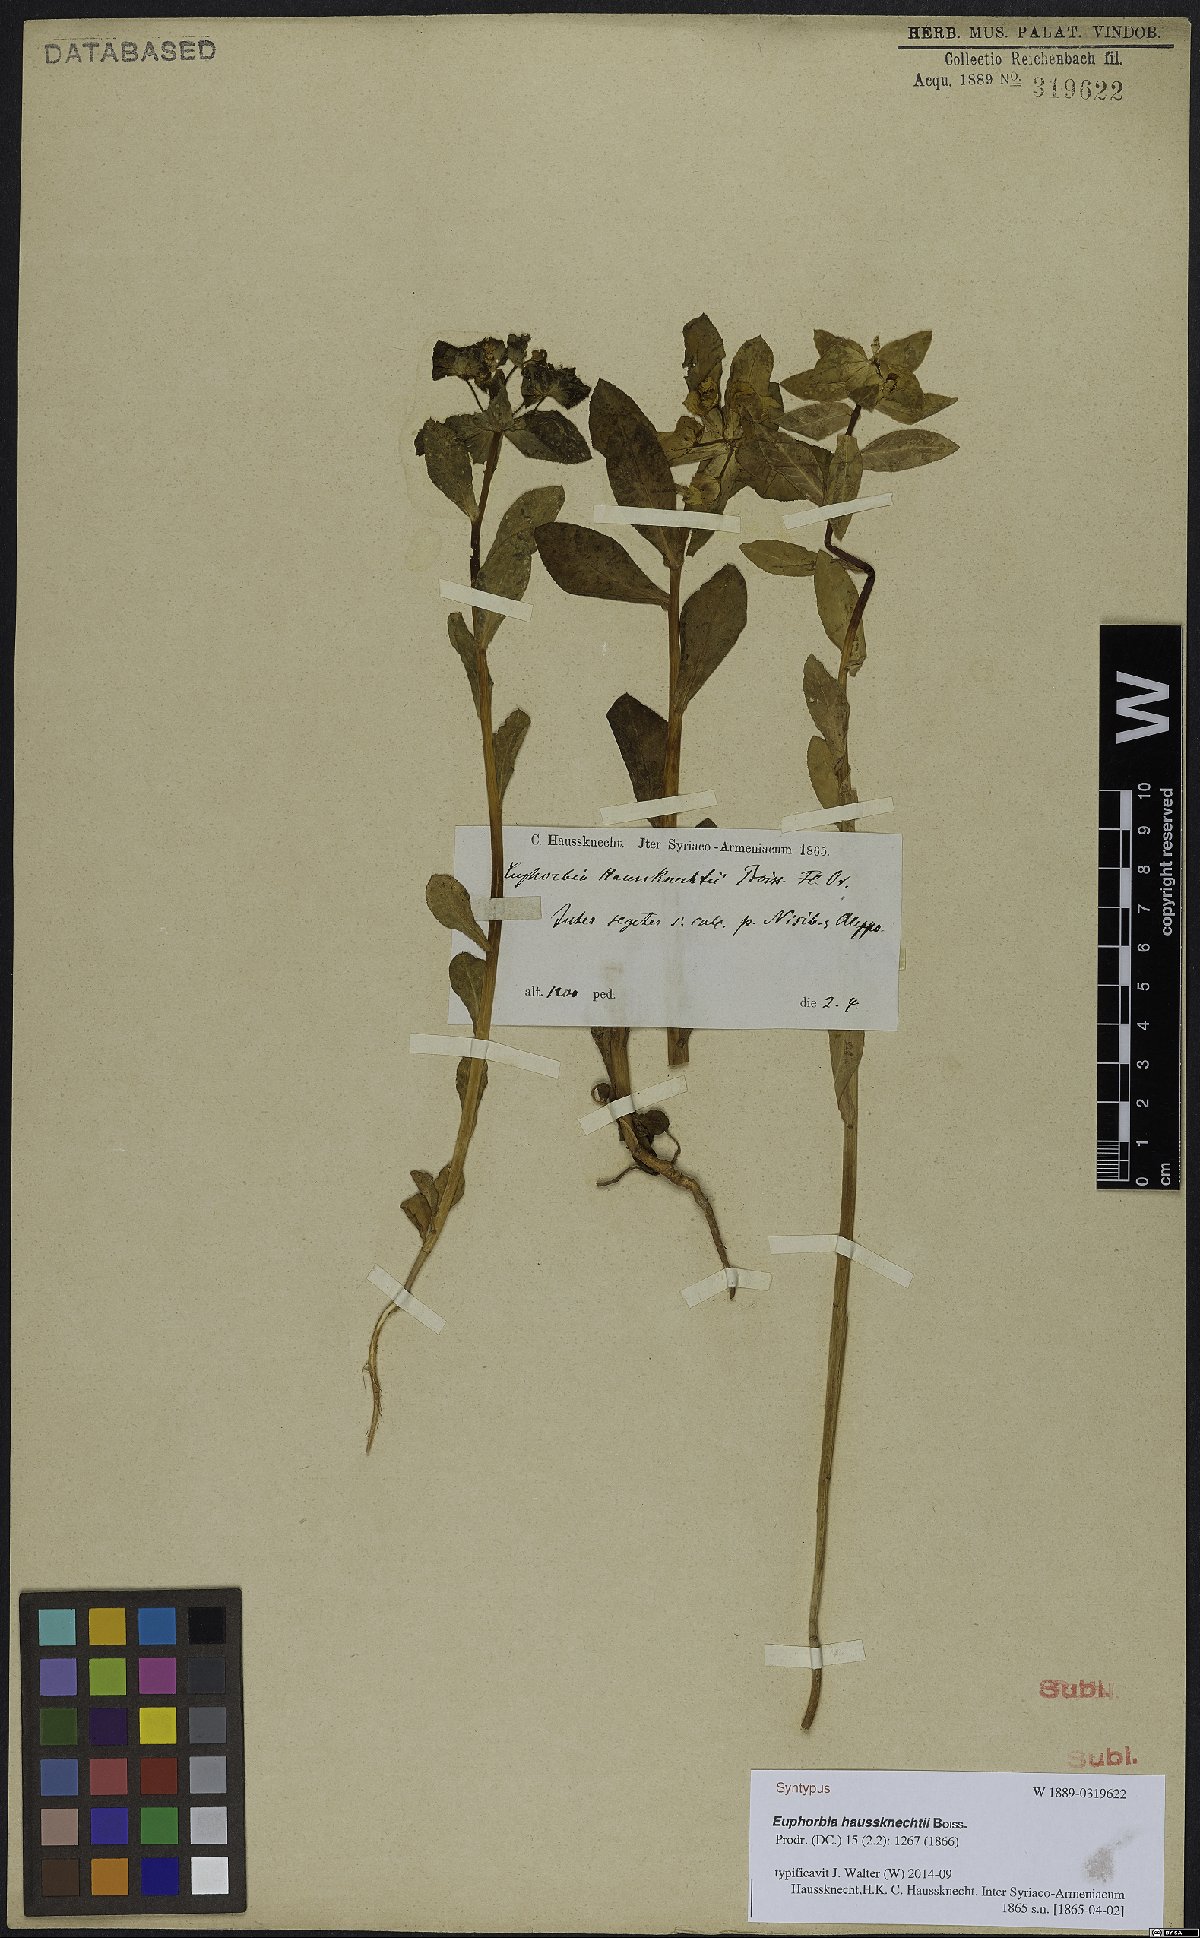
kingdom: Plantae
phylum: Tracheophyta
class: Magnoliopsida
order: Malpighiales
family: Euphorbiaceae
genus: Euphorbia
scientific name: Euphorbia haussknechtii
